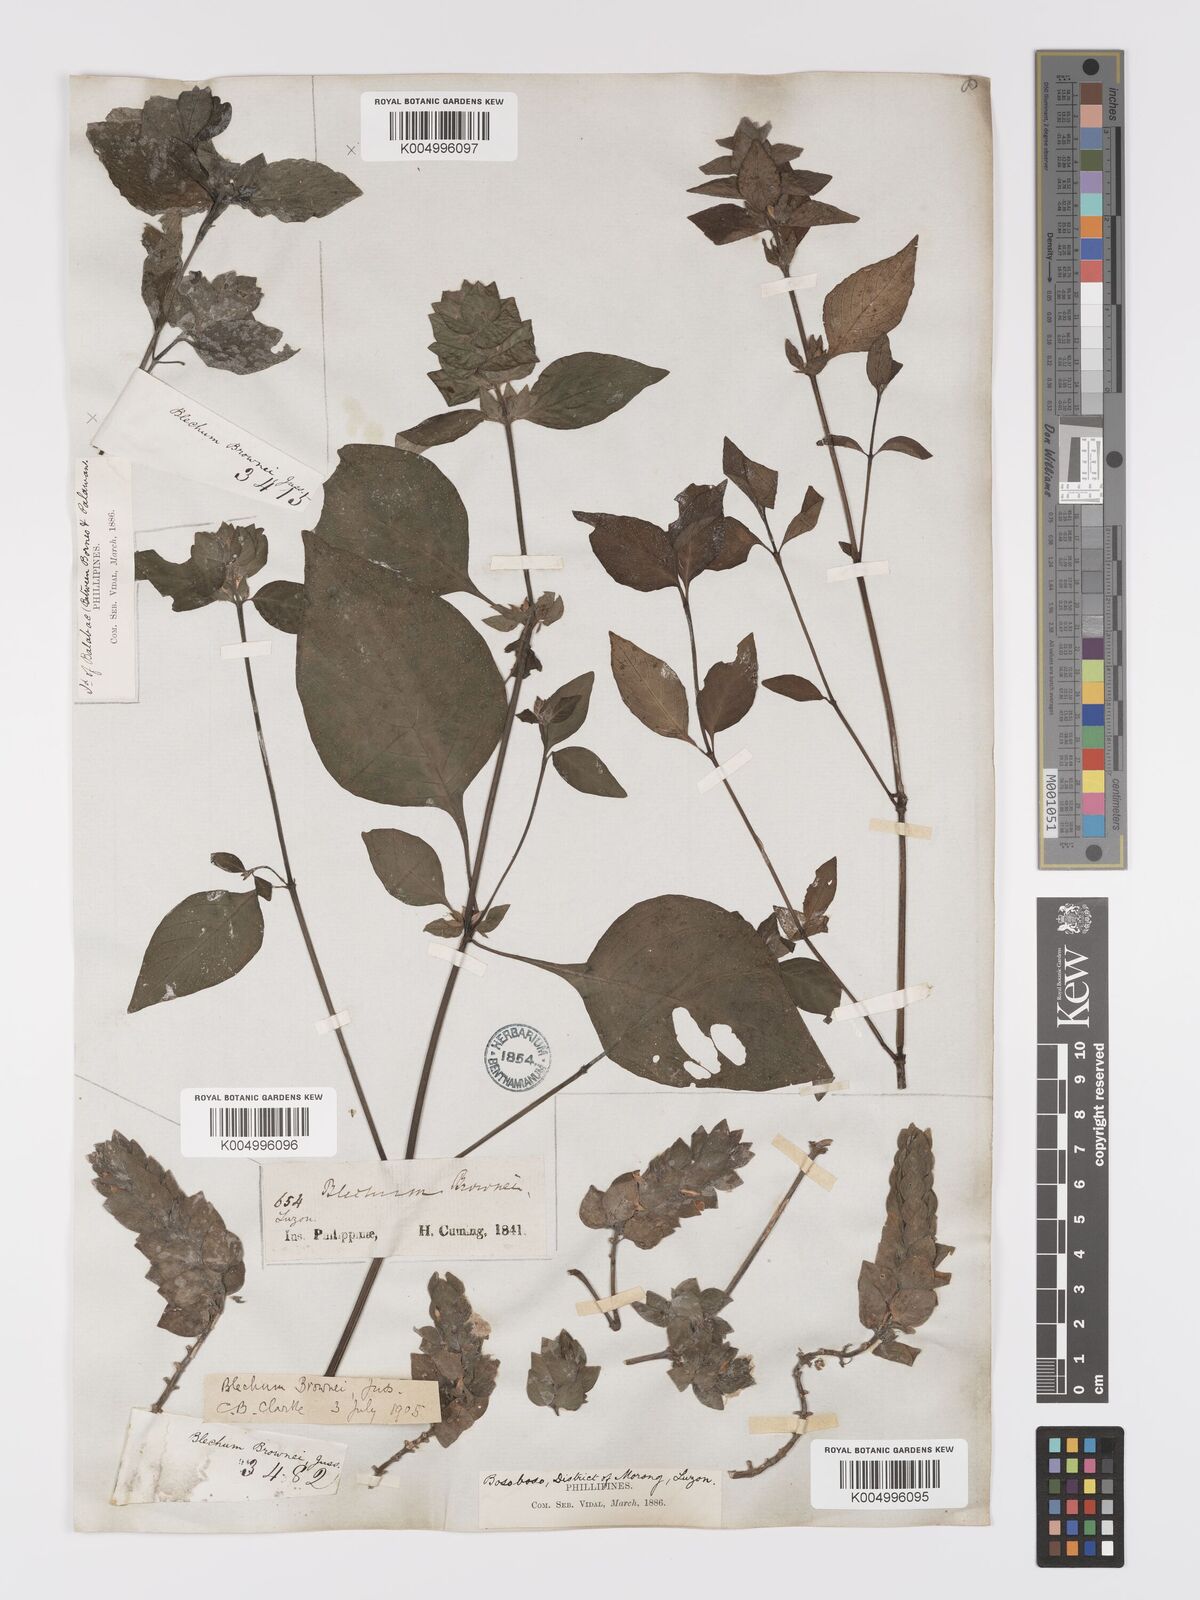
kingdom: Plantae
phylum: Tracheophyta
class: Magnoliopsida
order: Lamiales
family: Acanthaceae
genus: Ruellia
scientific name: Ruellia blechum
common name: Browne's blechum
